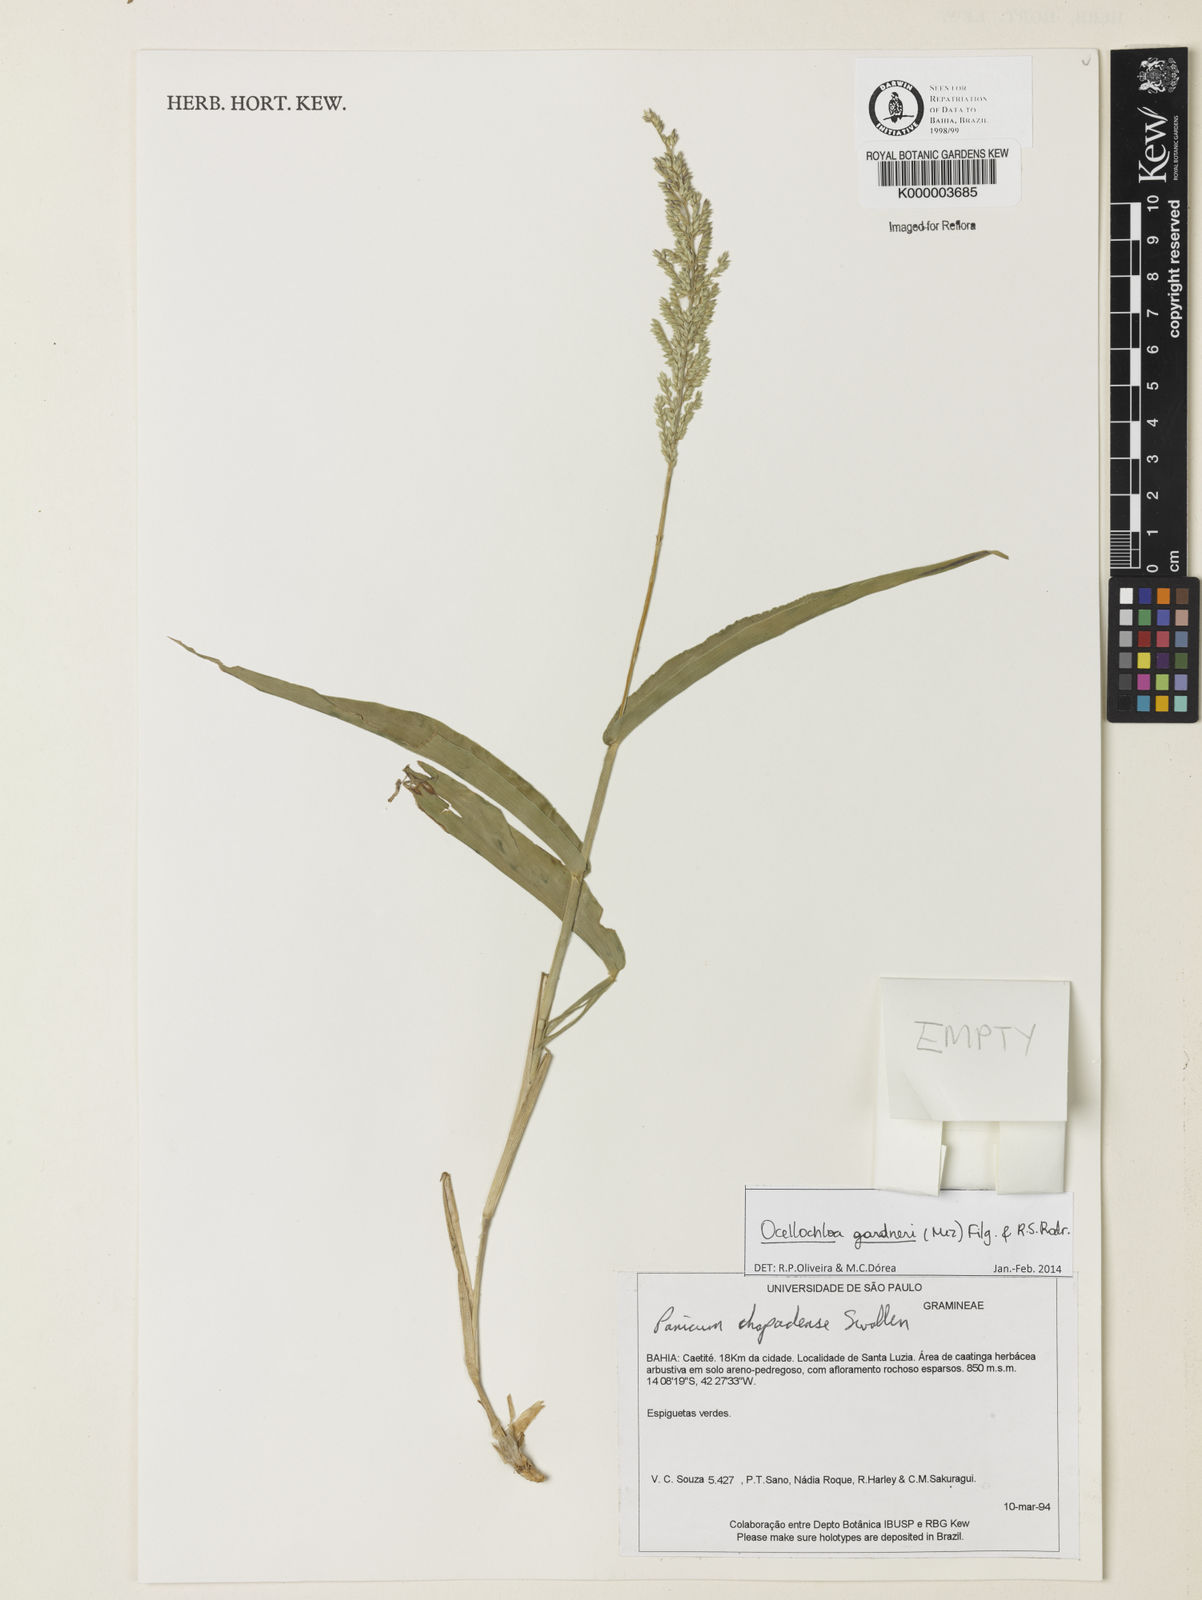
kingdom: Plantae
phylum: Tracheophyta
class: Liliopsida
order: Poales
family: Poaceae
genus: Ocellochloa
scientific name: Ocellochloa chapadensis
